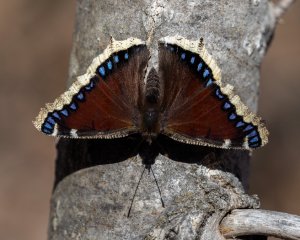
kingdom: Animalia
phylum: Arthropoda
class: Insecta
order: Lepidoptera
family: Nymphalidae
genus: Nymphalis
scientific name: Nymphalis antiopa
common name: Mourning Cloak
